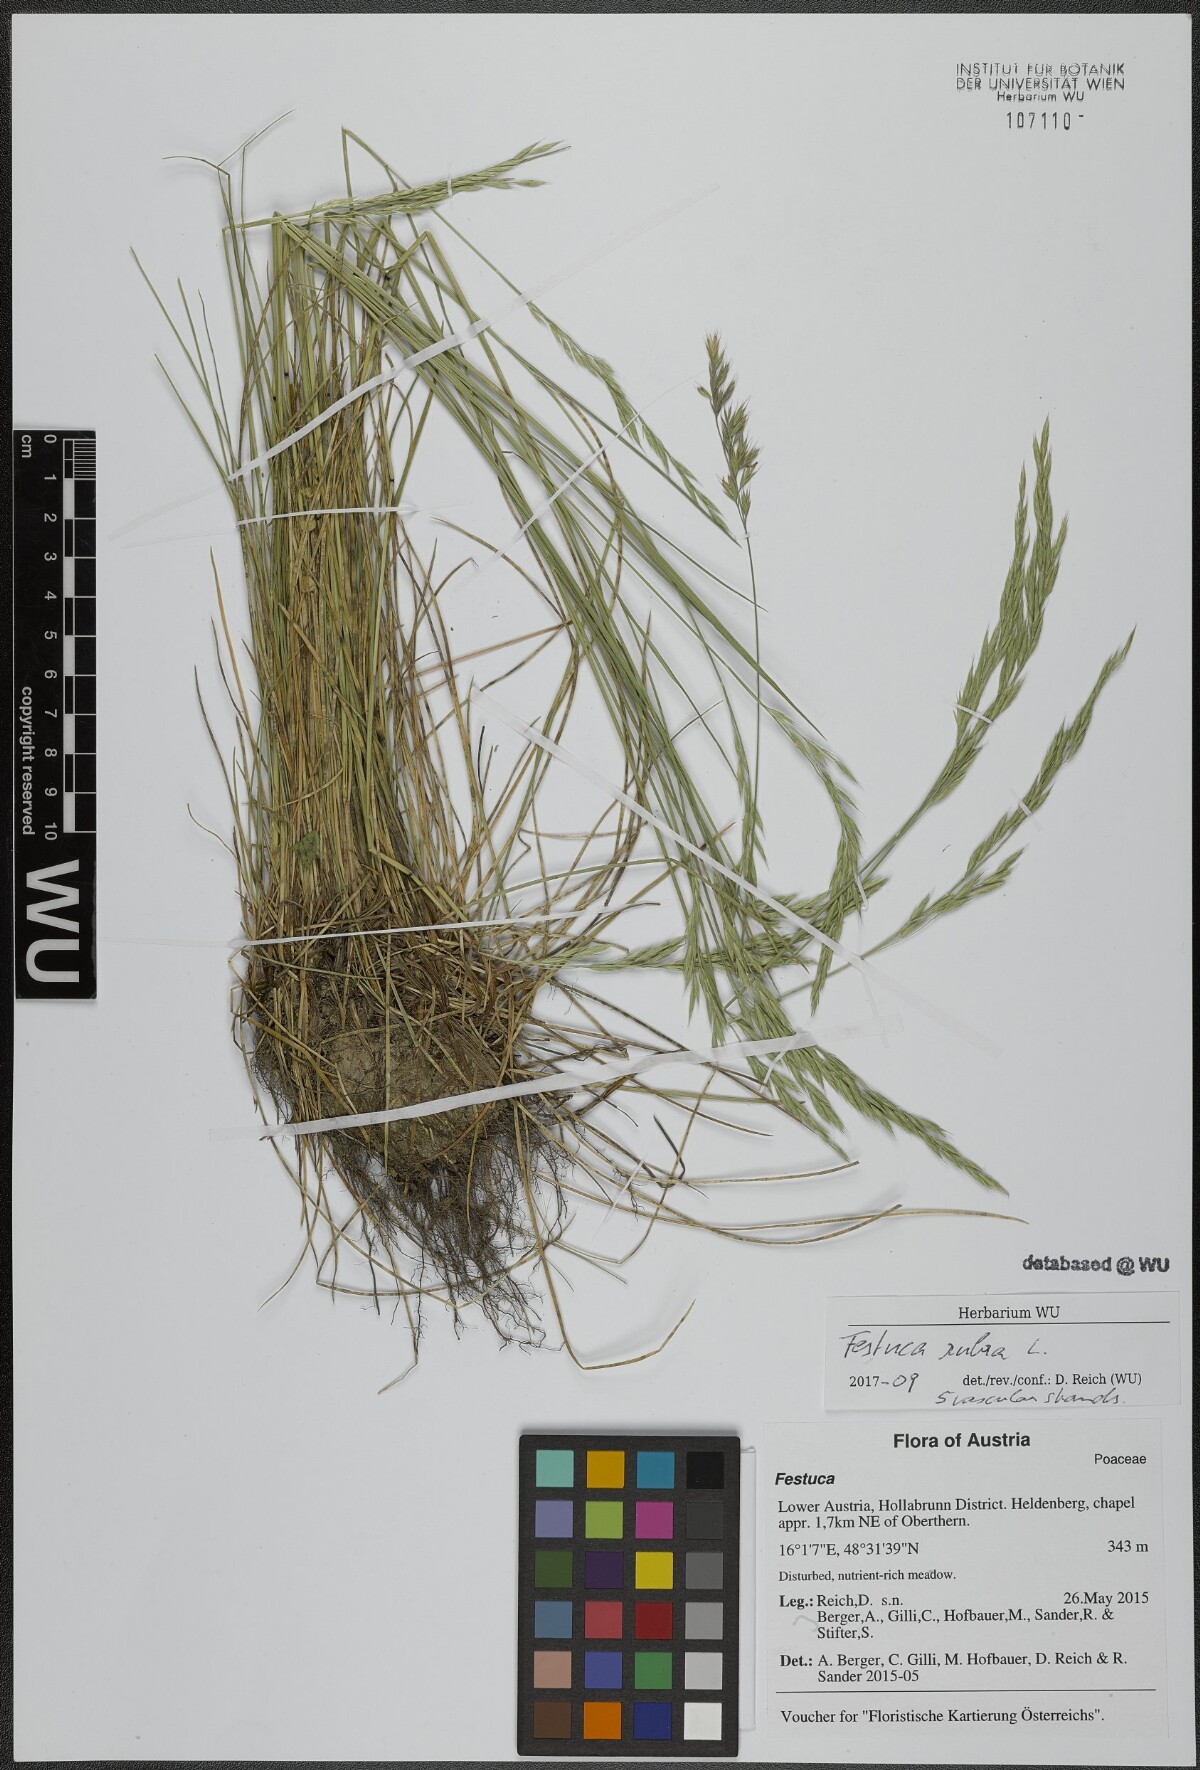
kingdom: Plantae
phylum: Tracheophyta
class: Liliopsida
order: Poales
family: Poaceae
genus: Festuca
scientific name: Festuca rubra
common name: Red fescue
